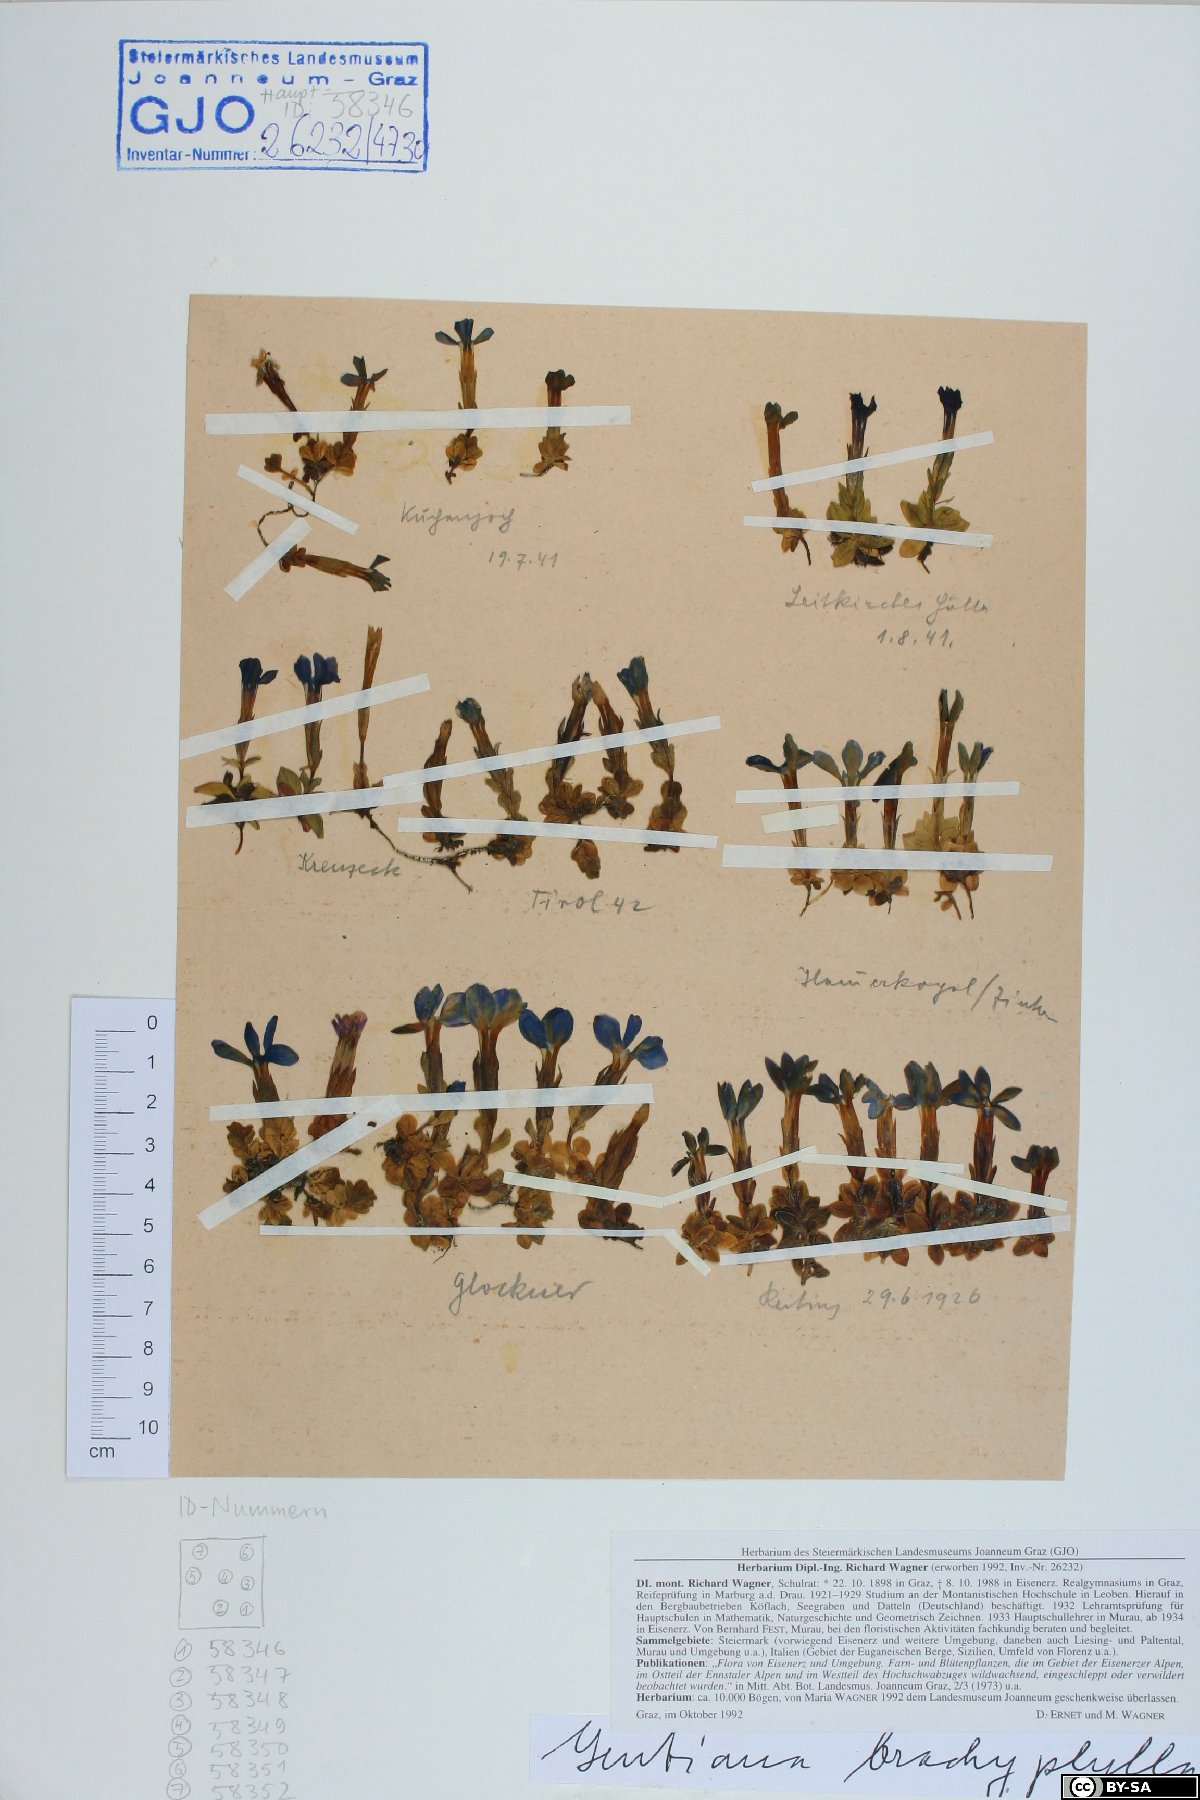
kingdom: Plantae
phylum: Tracheophyta
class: Magnoliopsida
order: Gentianales
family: Gentianaceae
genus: Gentiana
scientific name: Gentiana brachyphylla
